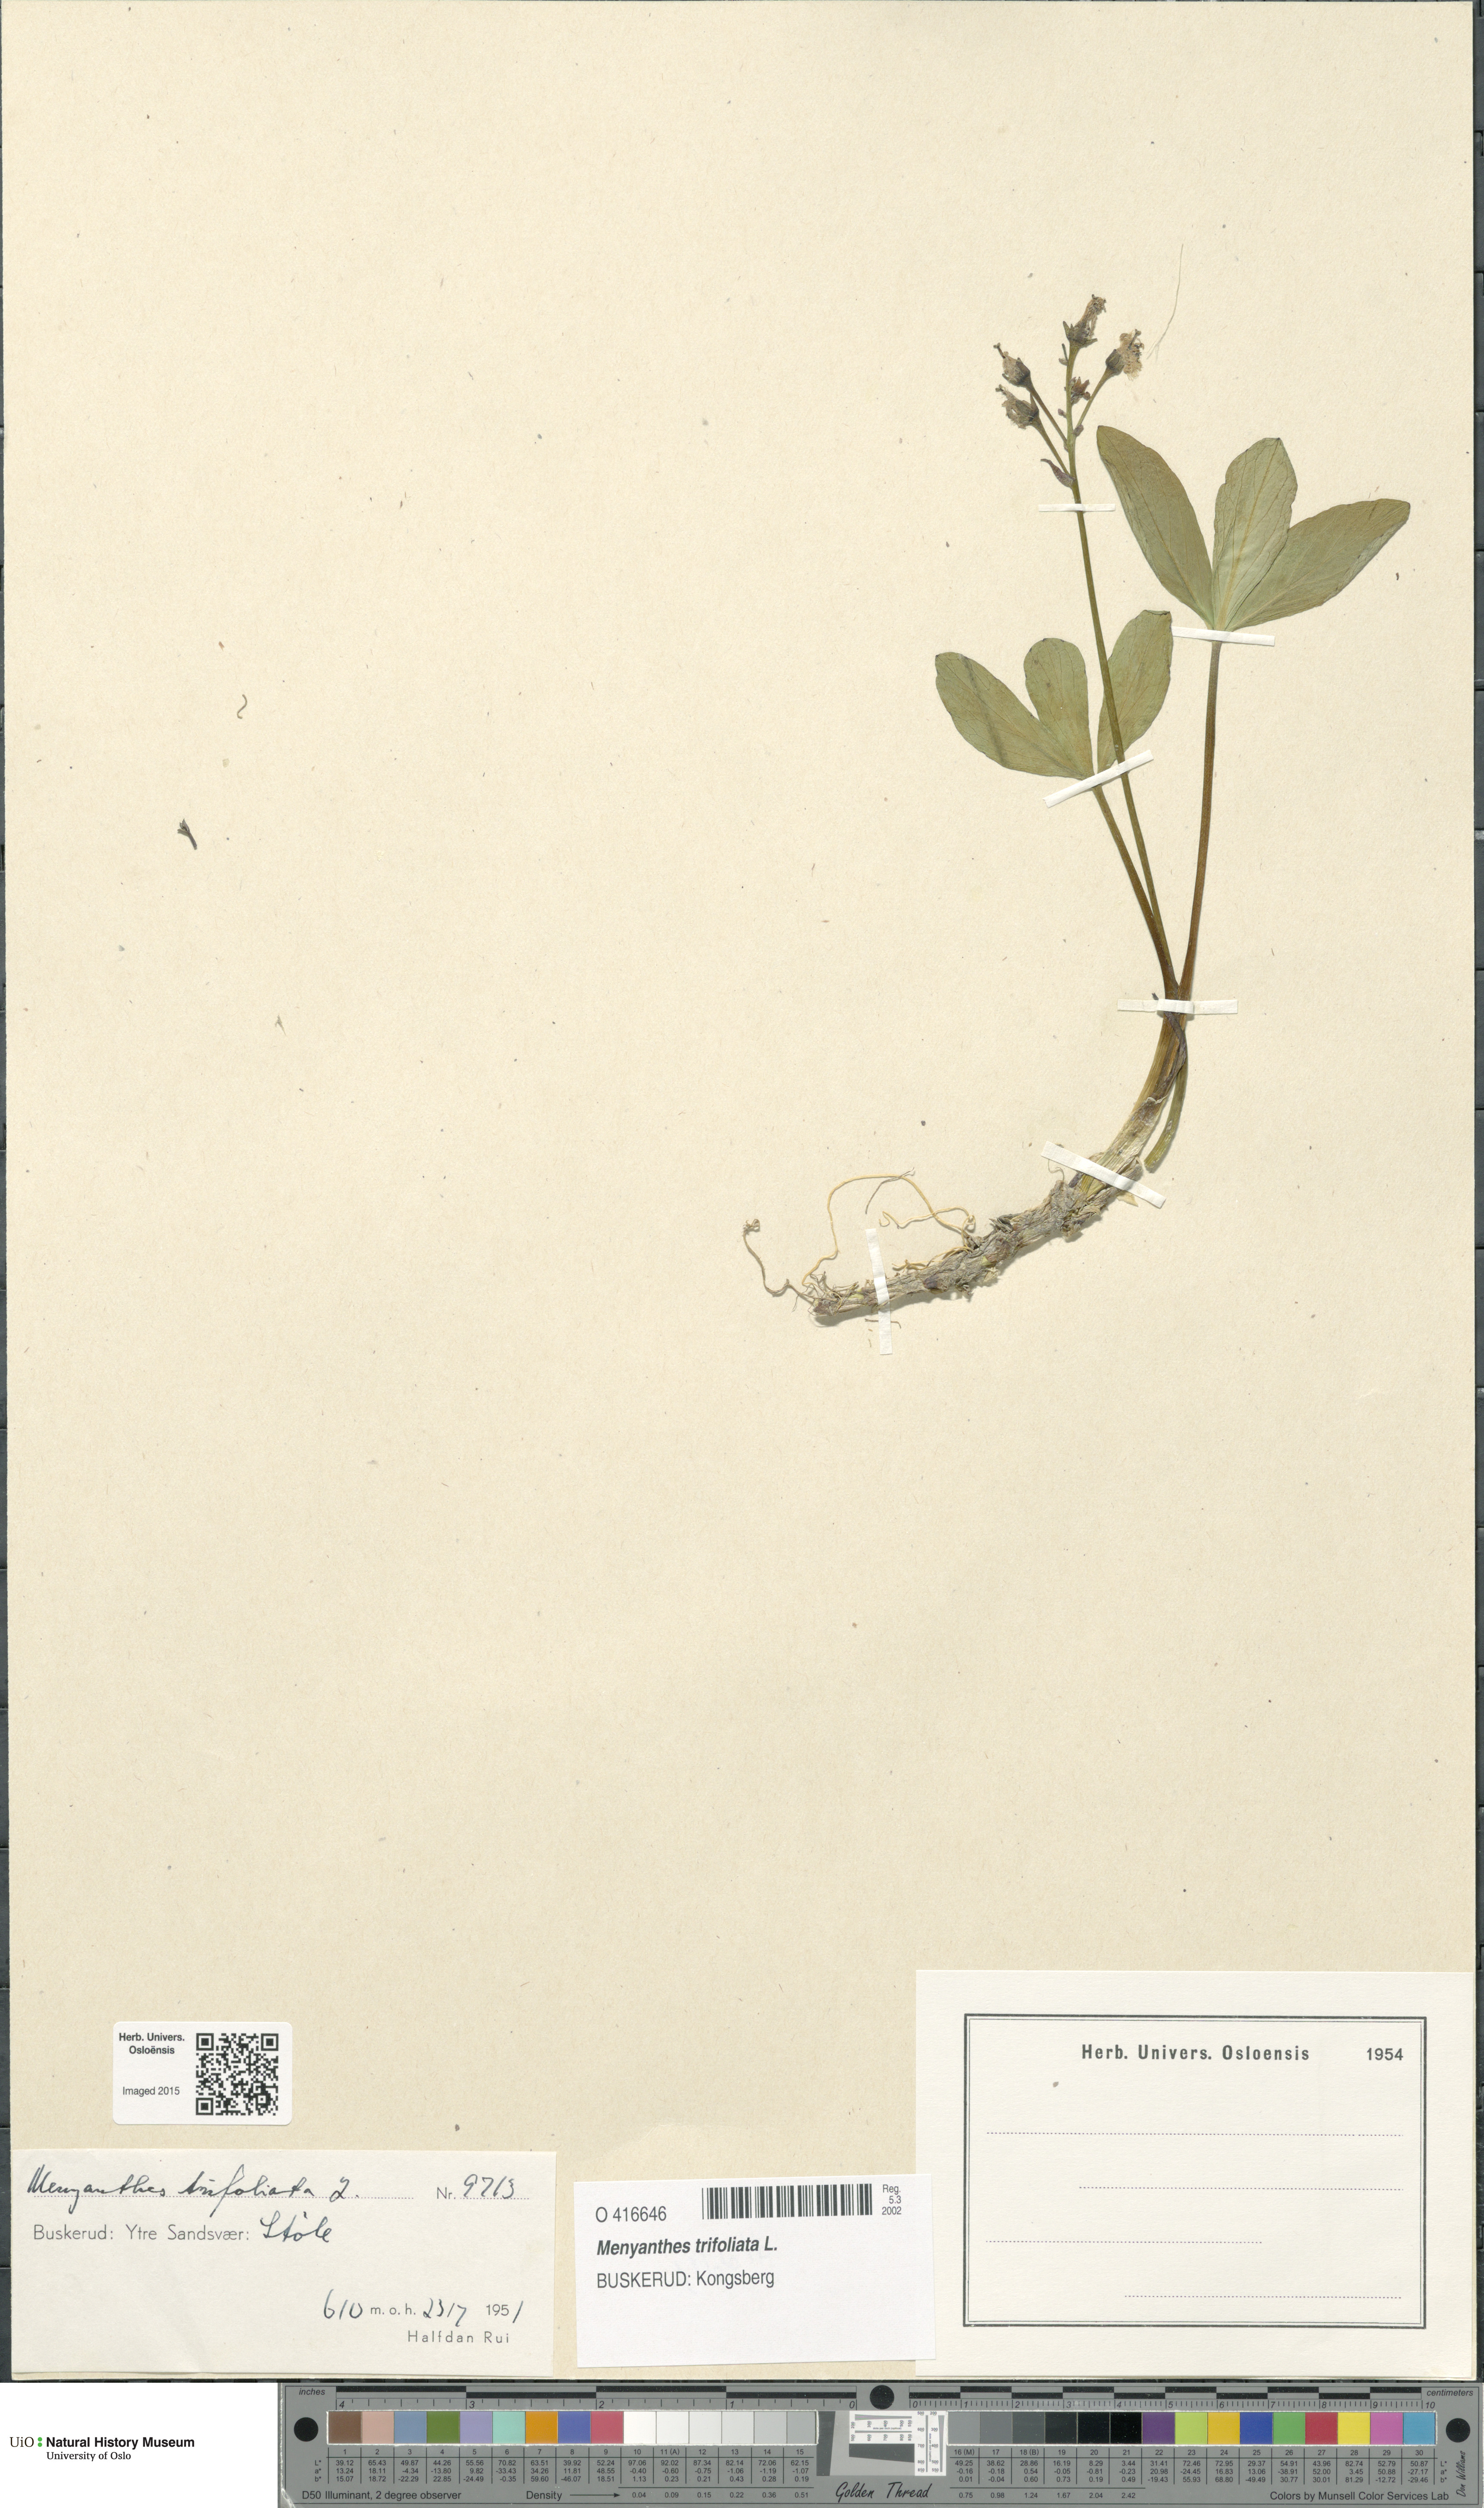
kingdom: Plantae
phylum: Tracheophyta
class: Magnoliopsida
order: Asterales
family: Menyanthaceae
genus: Menyanthes
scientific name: Menyanthes trifoliata
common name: Bogbean
